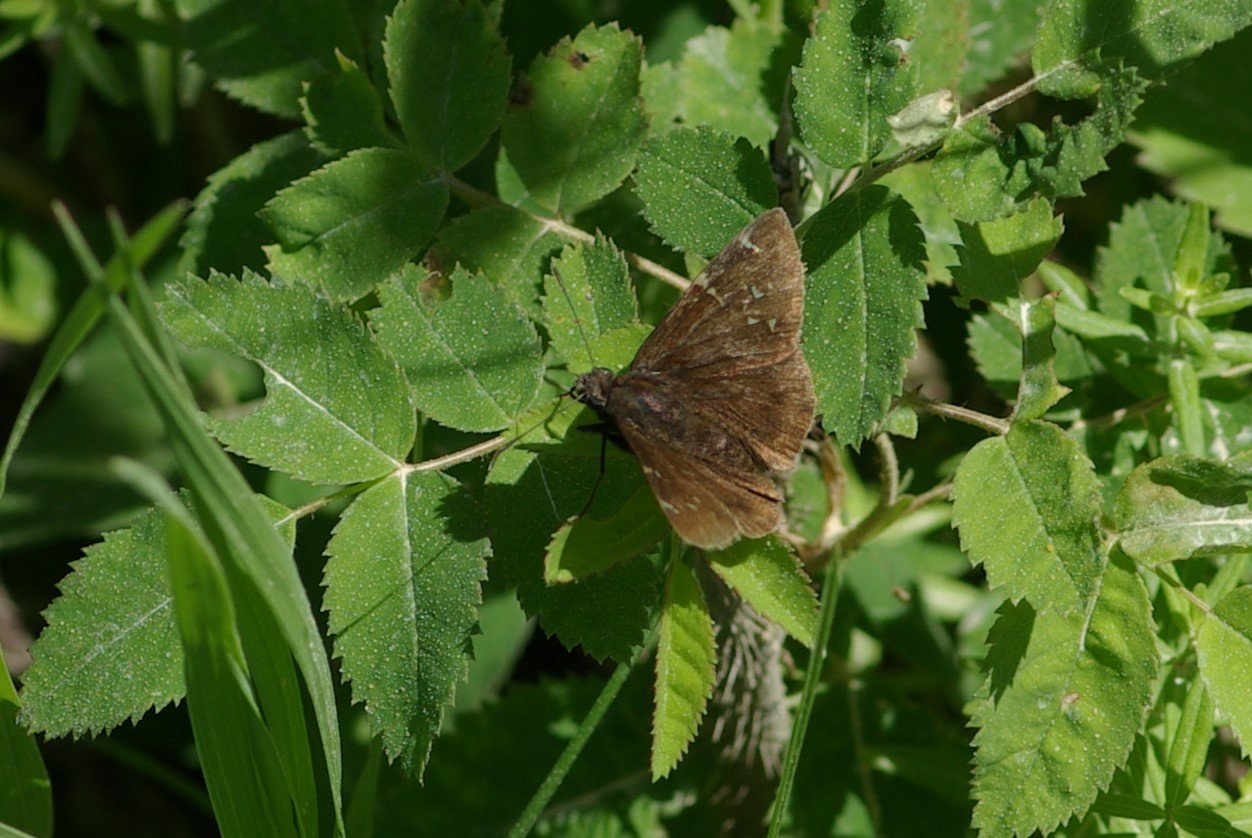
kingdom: Animalia
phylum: Arthropoda
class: Insecta
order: Lepidoptera
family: Hesperiidae
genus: Autochton
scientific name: Autochton
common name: Northern Cloudywing
